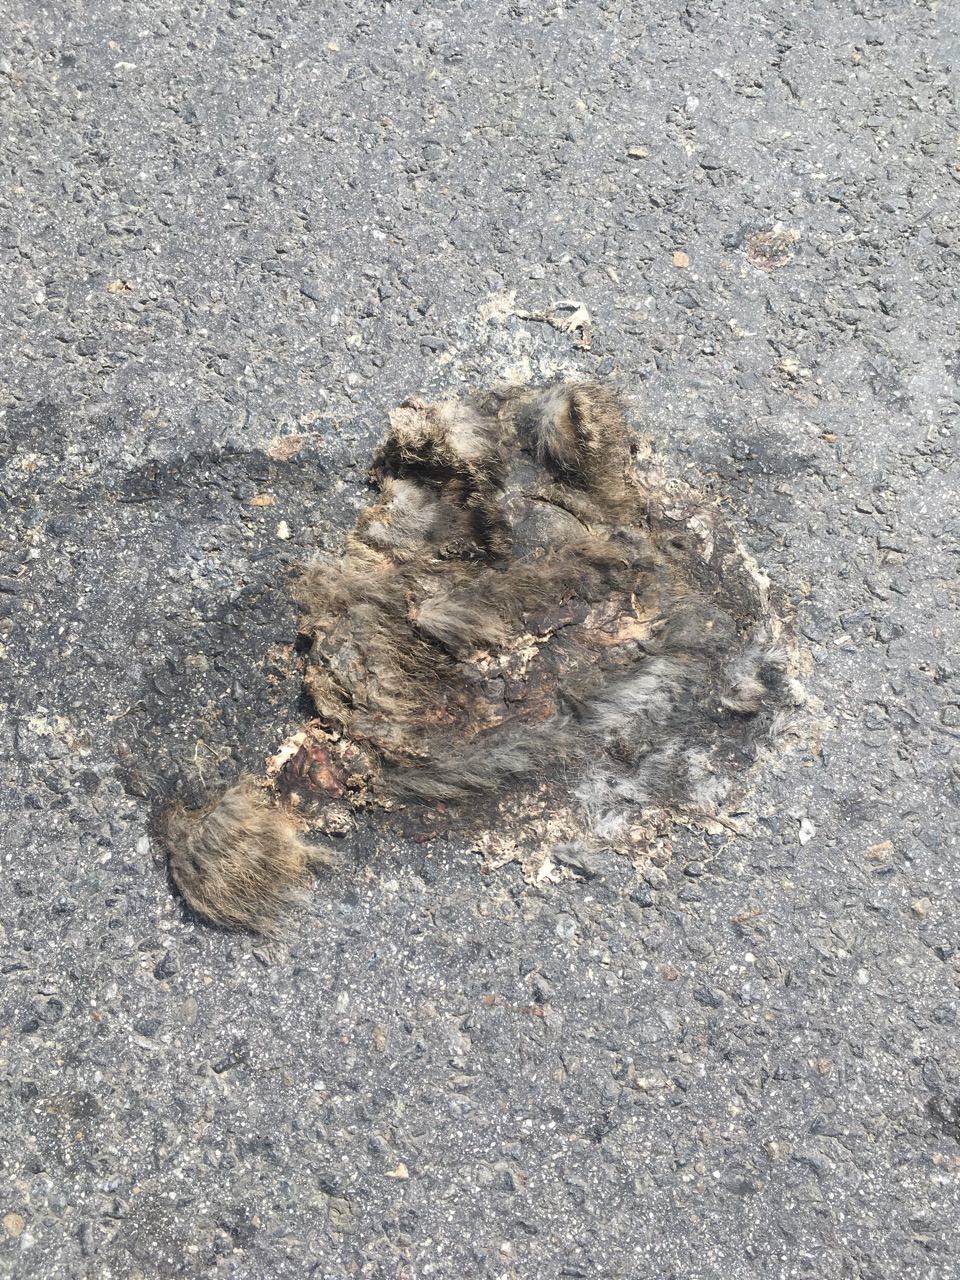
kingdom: Animalia
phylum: Chordata
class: Mammalia
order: Carnivora
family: Felidae
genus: Felis
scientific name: Felis catus
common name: Domestic cat
